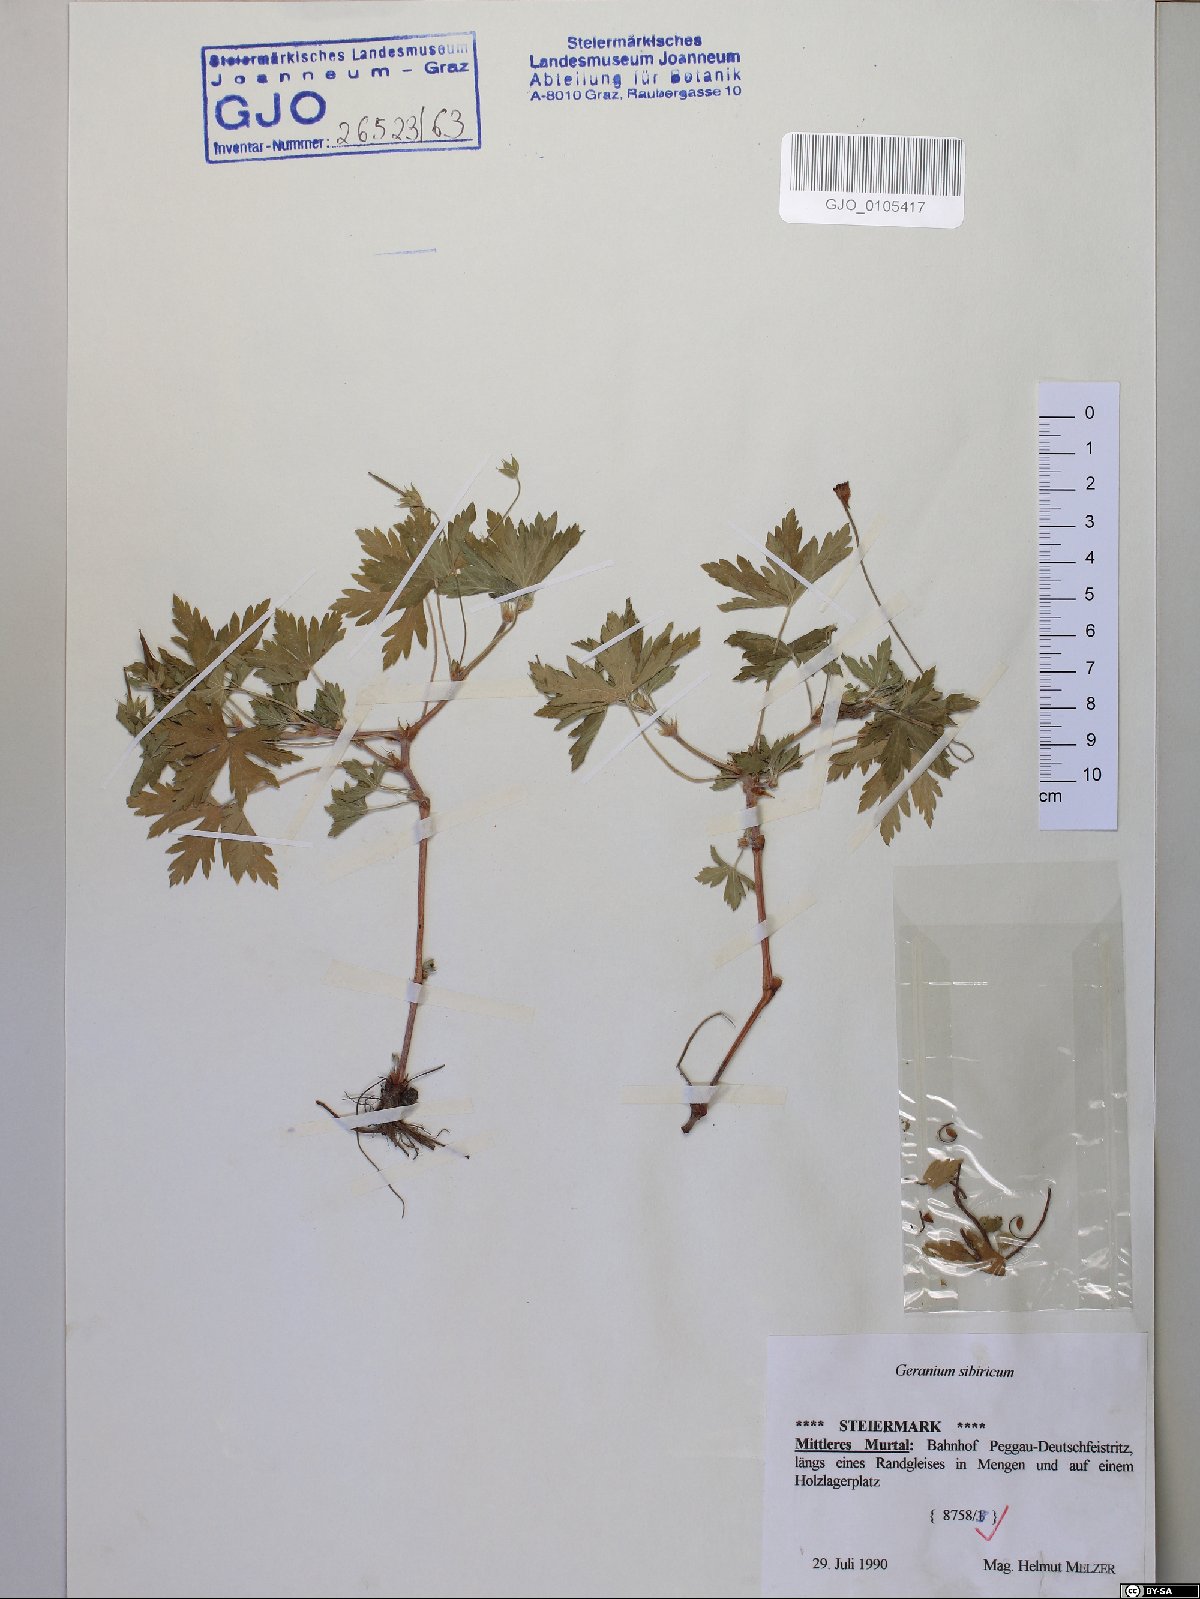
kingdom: Plantae
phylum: Tracheophyta
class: Magnoliopsida
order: Geraniales
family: Geraniaceae
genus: Geranium
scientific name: Geranium sibiricum
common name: Siberian crane's-bill
